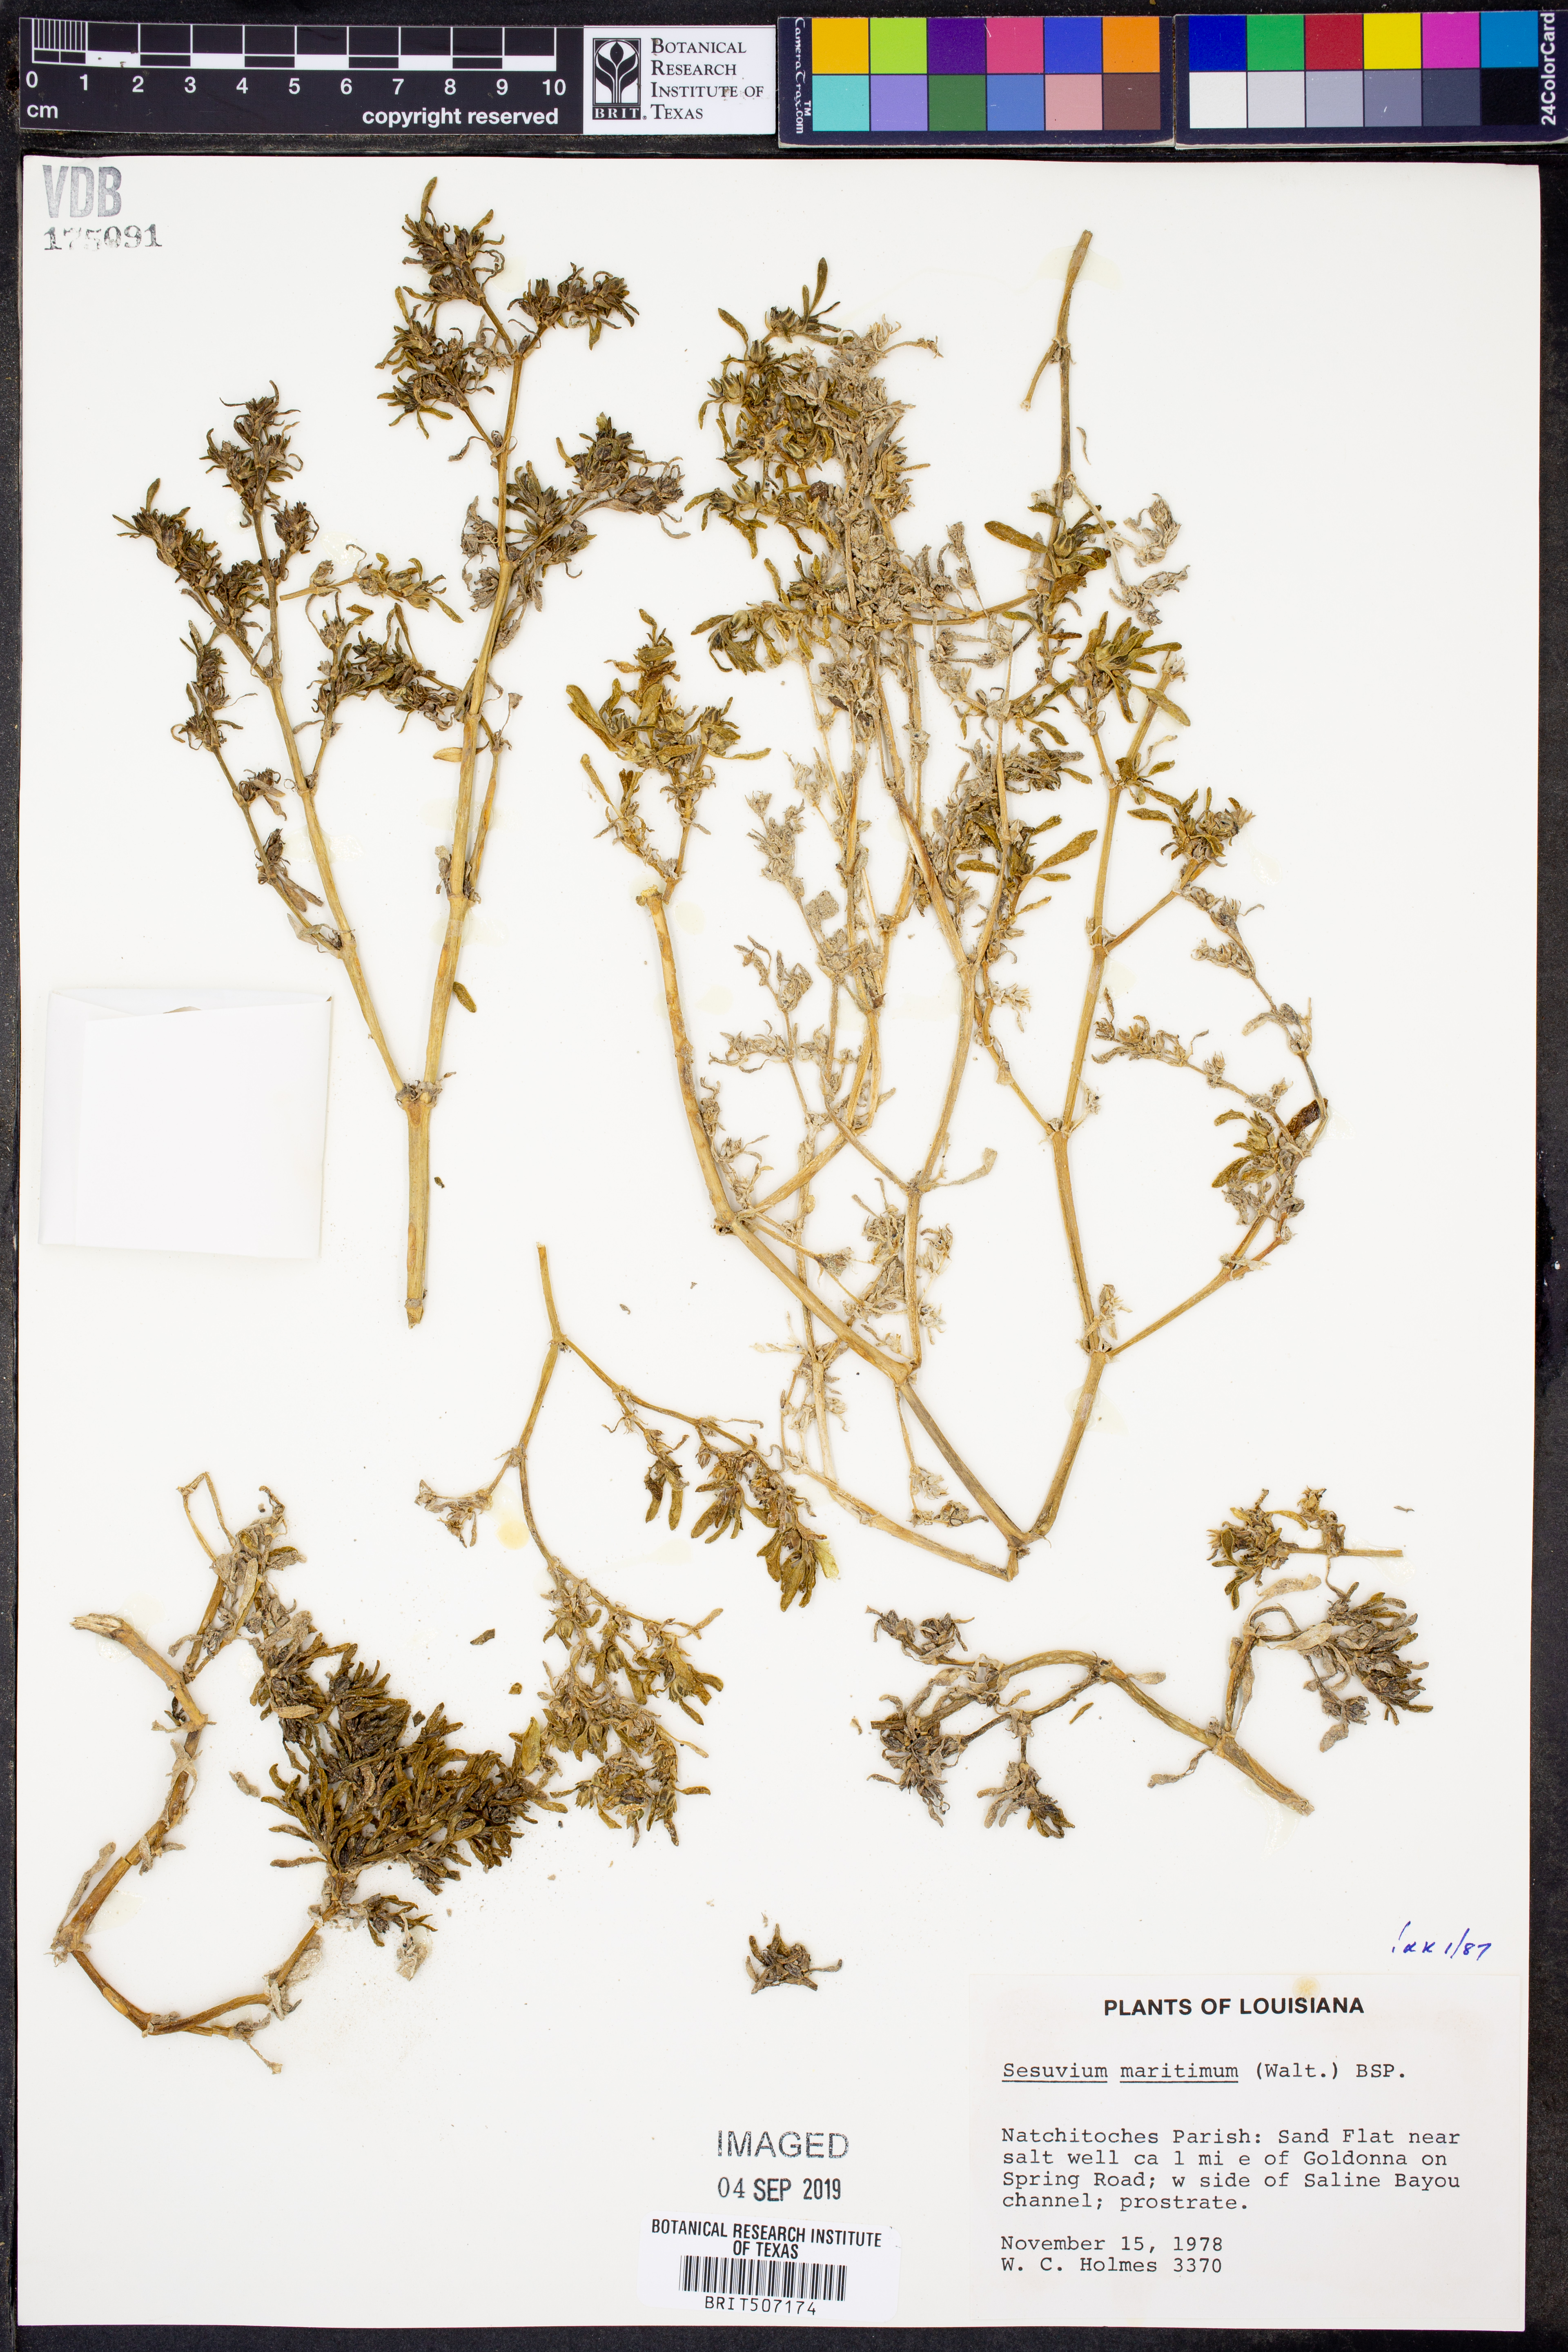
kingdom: Plantae
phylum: Tracheophyta
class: Magnoliopsida
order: Caryophyllales
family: Aizoaceae
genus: Sesuvium
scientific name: Sesuvium maritimum
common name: Slender sea-purslane
